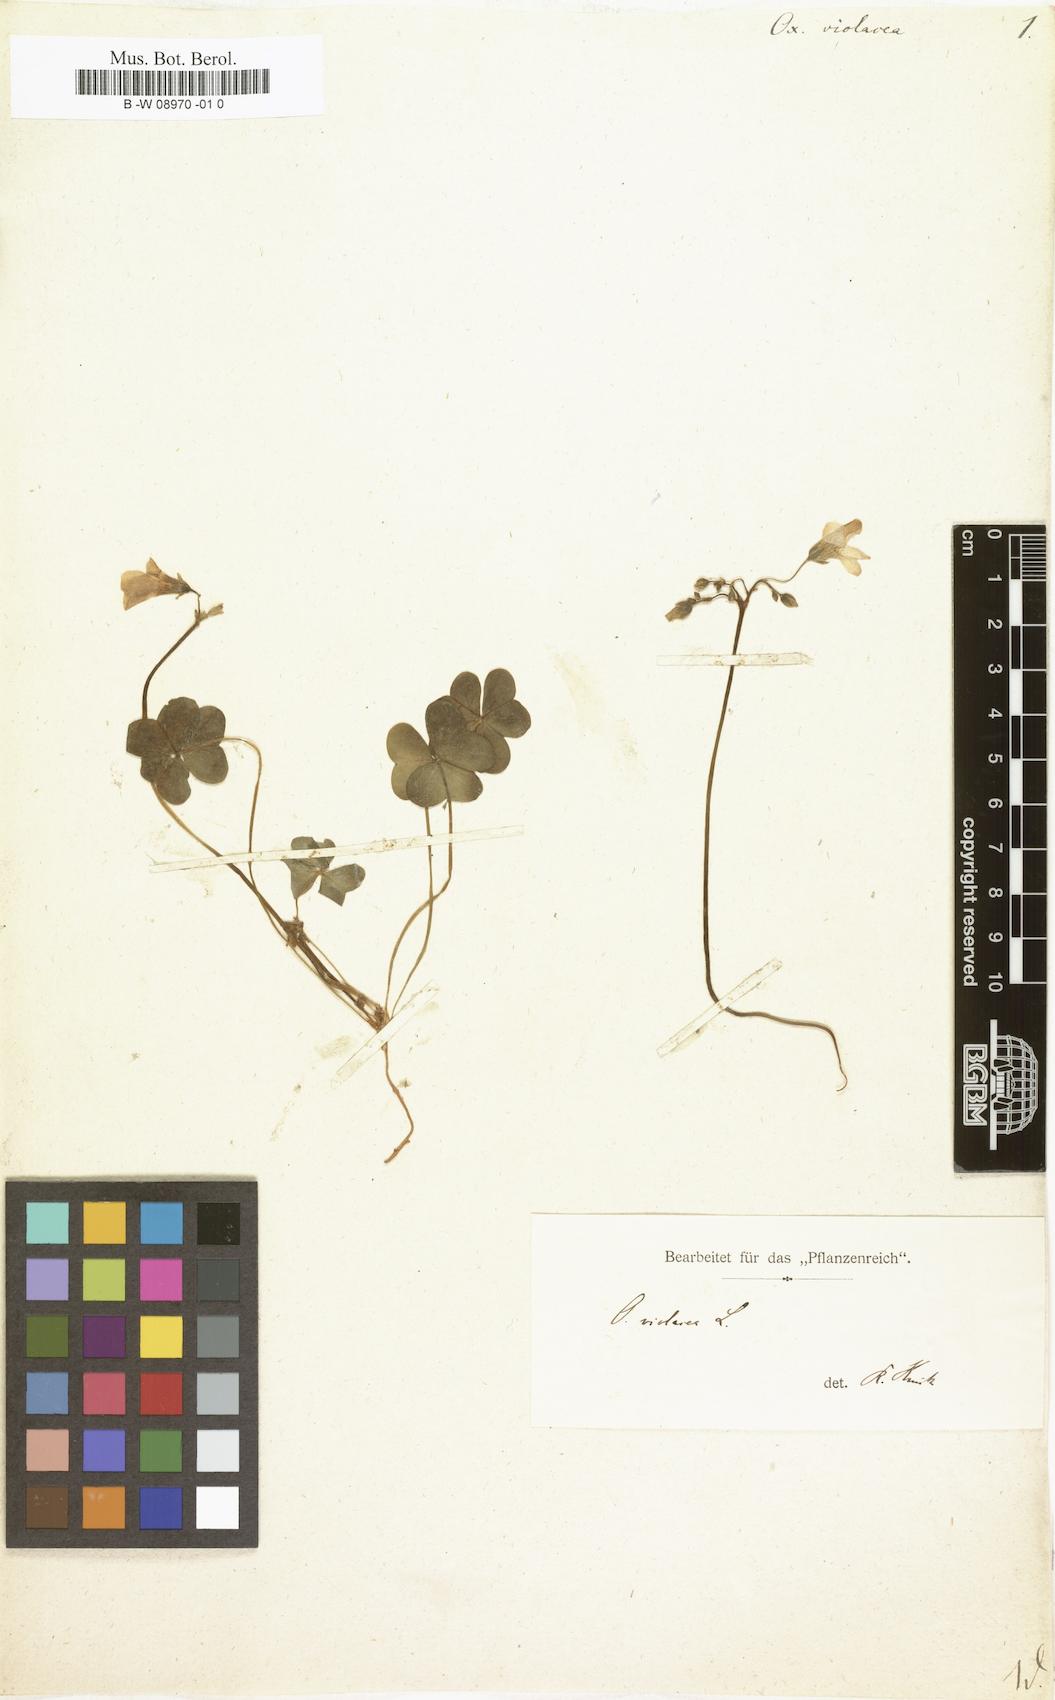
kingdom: Plantae
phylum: Tracheophyta
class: Magnoliopsida
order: Oxalidales
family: Oxalidaceae
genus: Oxalis
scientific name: Oxalis violacea
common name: Violet wood-sorrel
